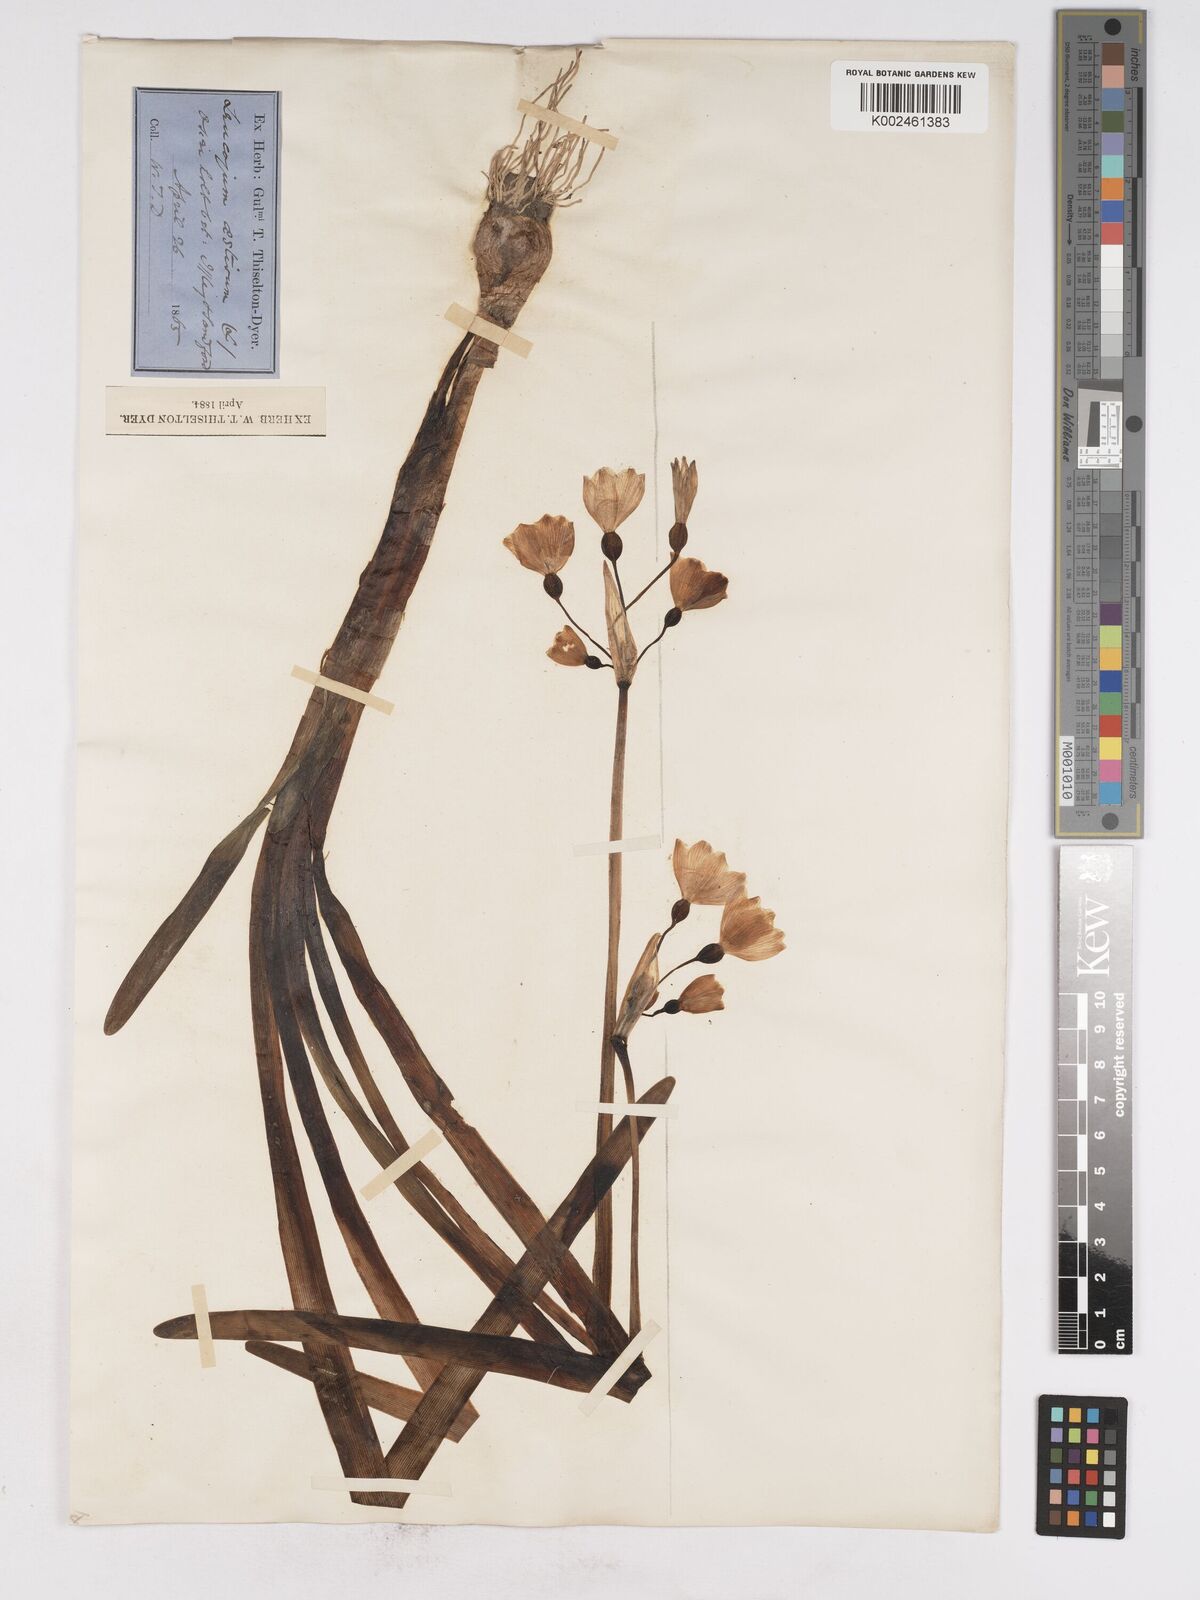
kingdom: Plantae
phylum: Tracheophyta
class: Liliopsida
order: Asparagales
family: Amaryllidaceae
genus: Leucojum
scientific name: Leucojum aestivum
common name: Summer snowflake
